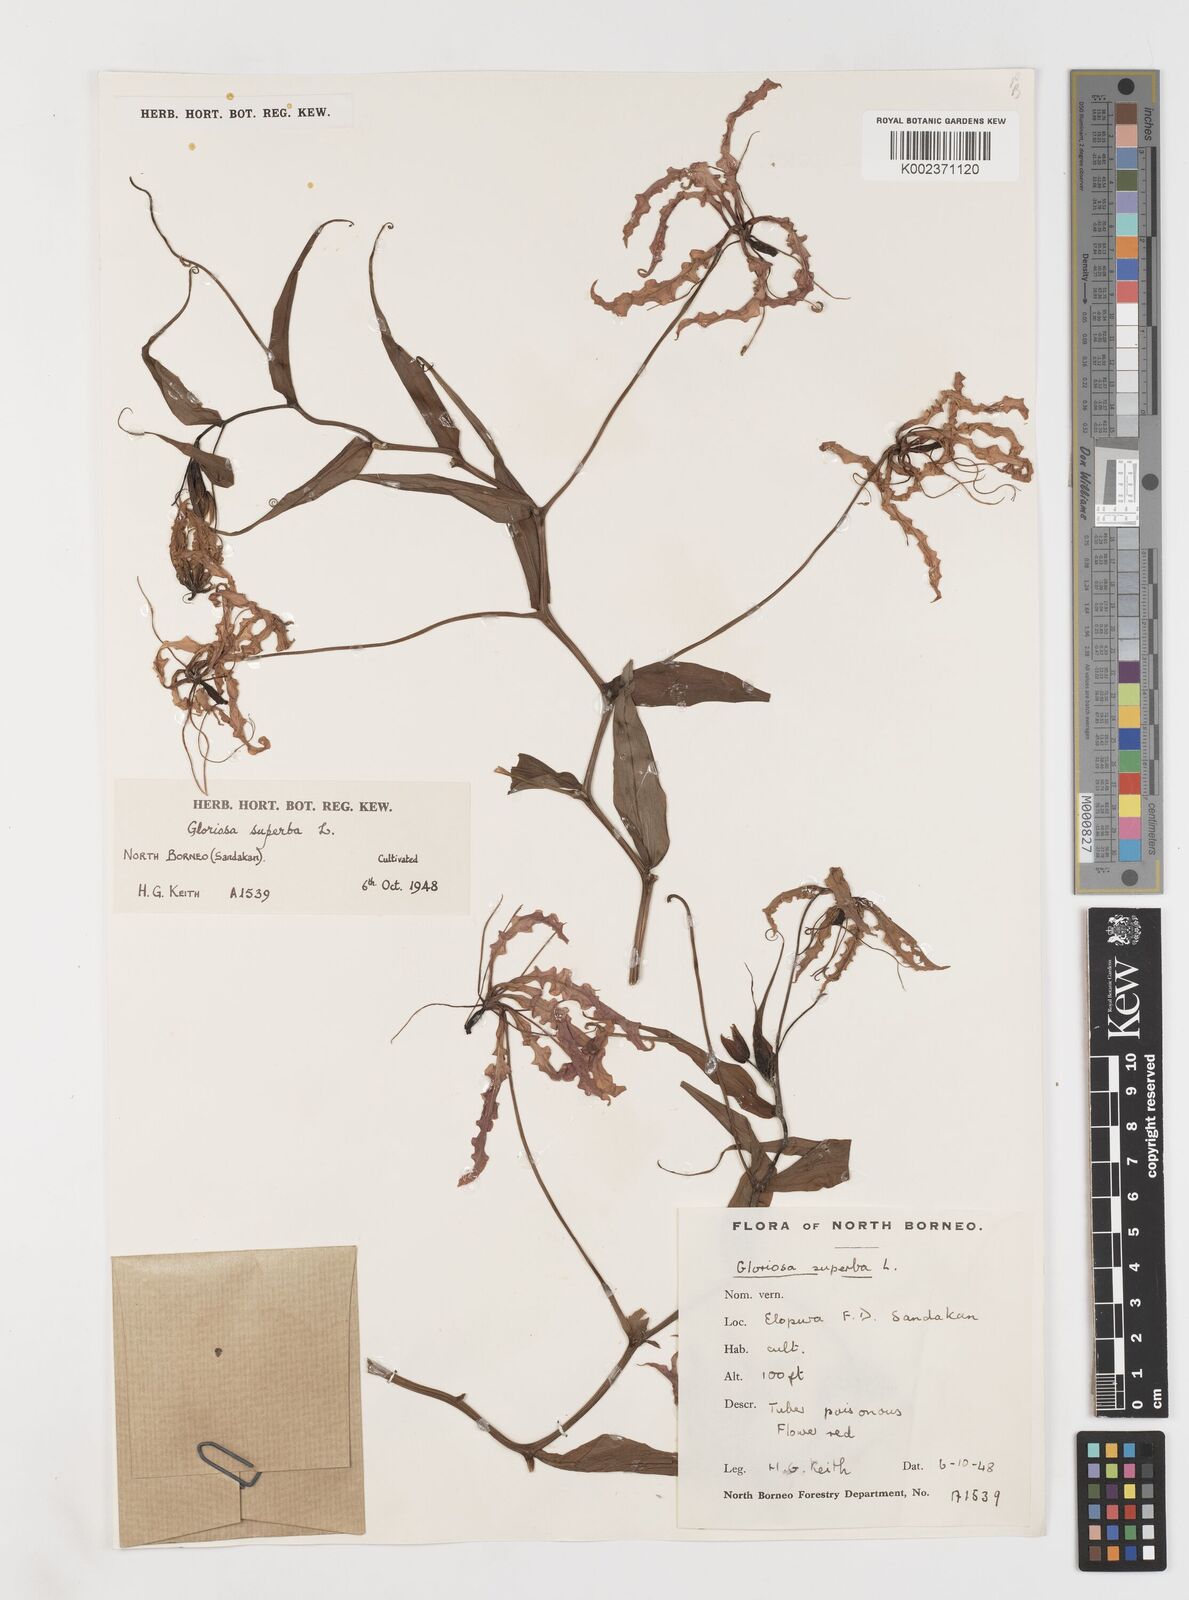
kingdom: Plantae
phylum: Tracheophyta
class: Liliopsida
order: Liliales
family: Colchicaceae
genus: Gloriosa
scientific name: Gloriosa superba
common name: Flame lily
